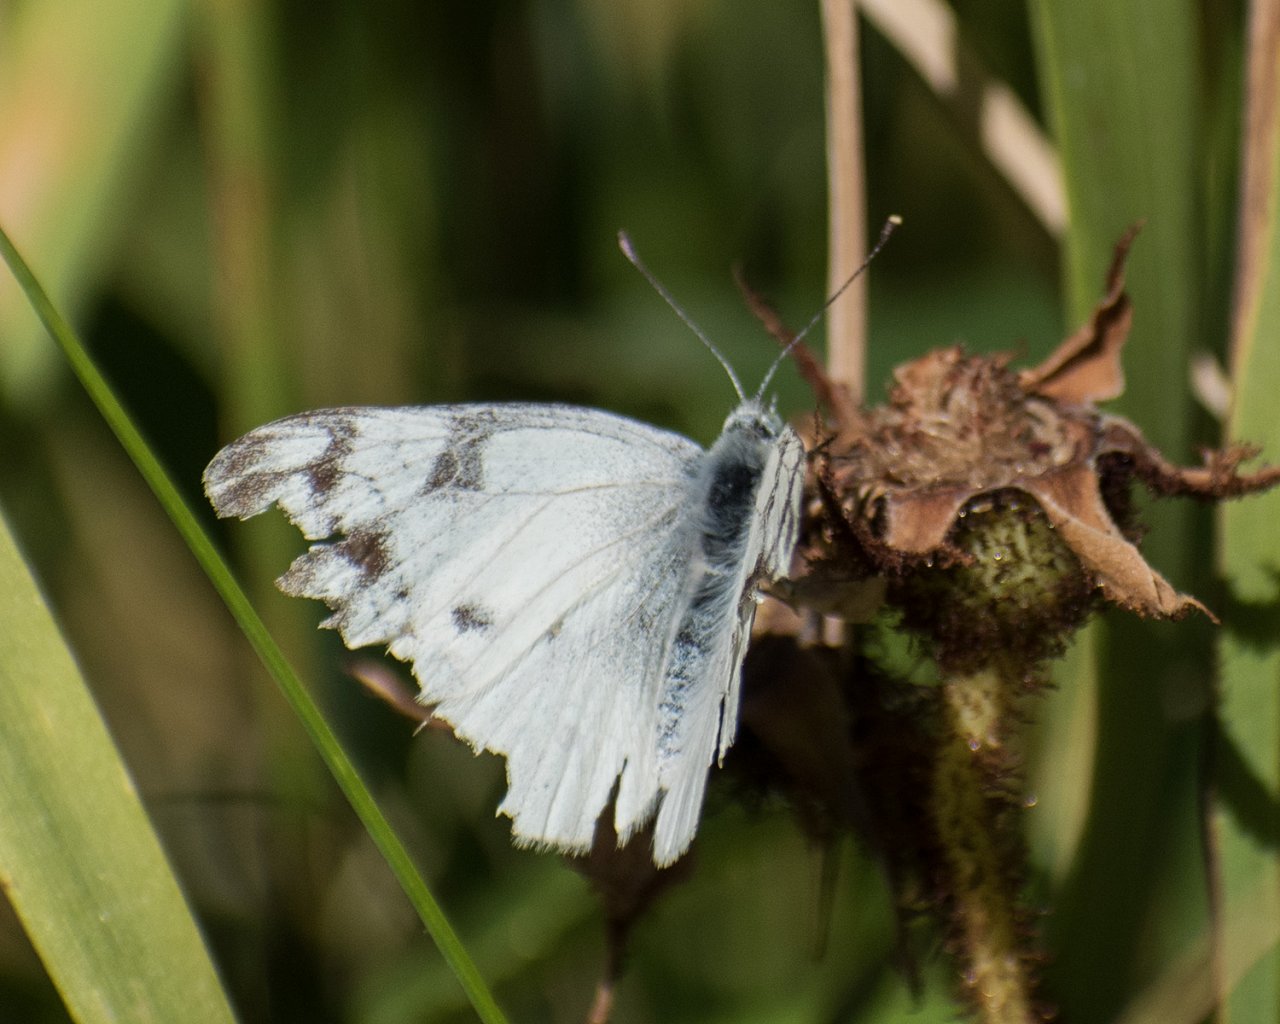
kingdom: Animalia
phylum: Arthropoda
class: Insecta
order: Lepidoptera
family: Pieridae
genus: Pontia
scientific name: Pontia occidentalis
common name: Western White
